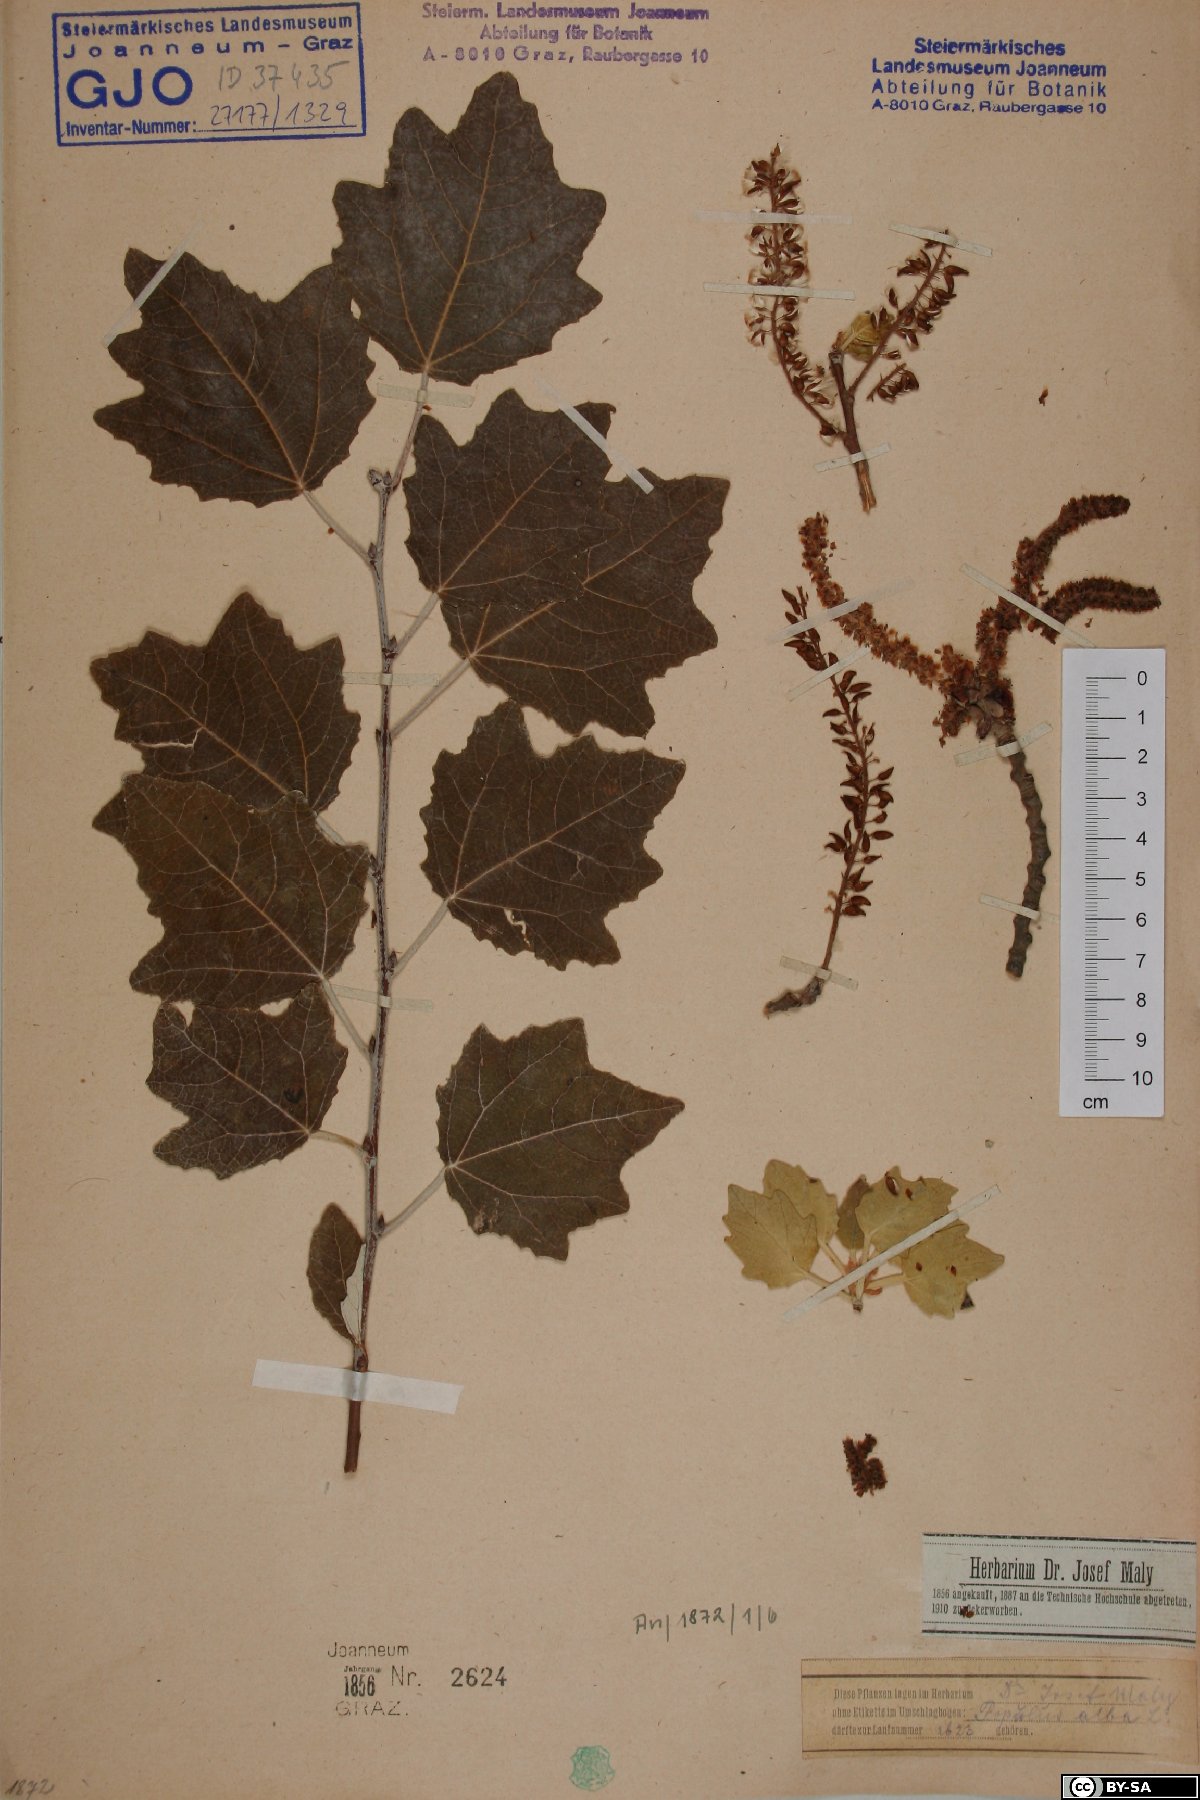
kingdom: Plantae
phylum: Tracheophyta
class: Magnoliopsida
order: Malpighiales
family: Salicaceae
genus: Populus
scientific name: Populus alba
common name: White poplar
